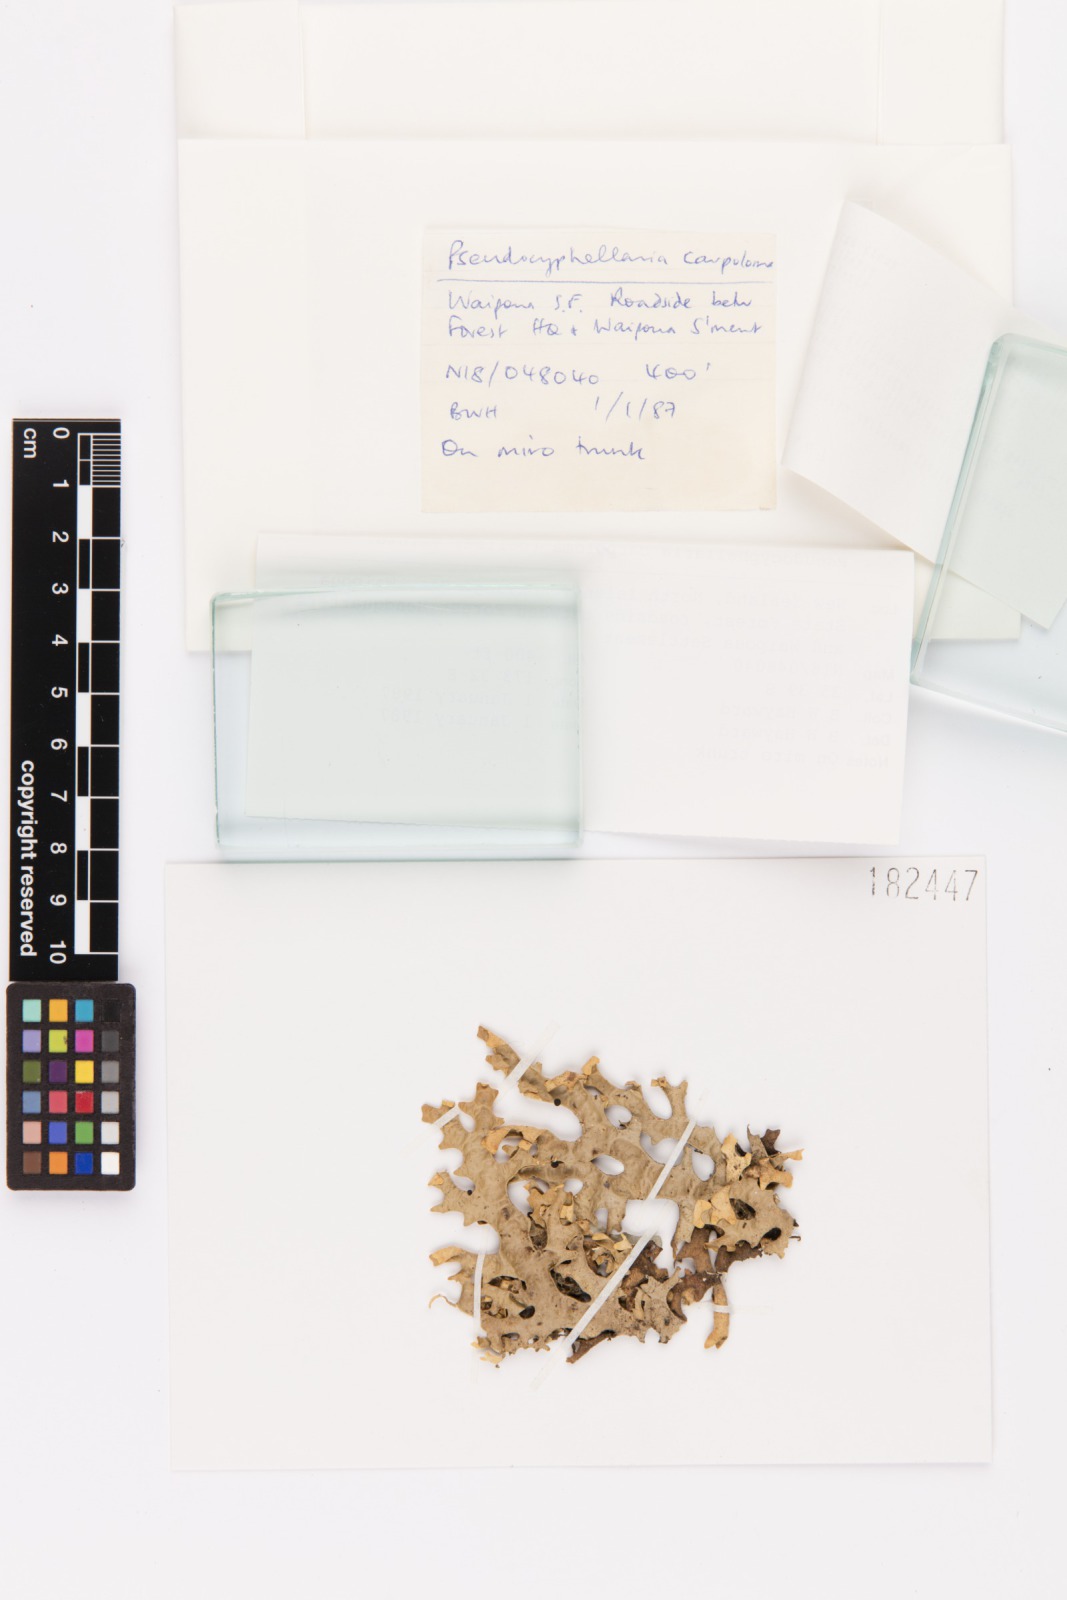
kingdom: Fungi
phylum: Ascomycota
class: Lecanoromycetes
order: Peltigerales
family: Lobariaceae
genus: Pseudocyphellaria
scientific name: Pseudocyphellaria carpoloma
